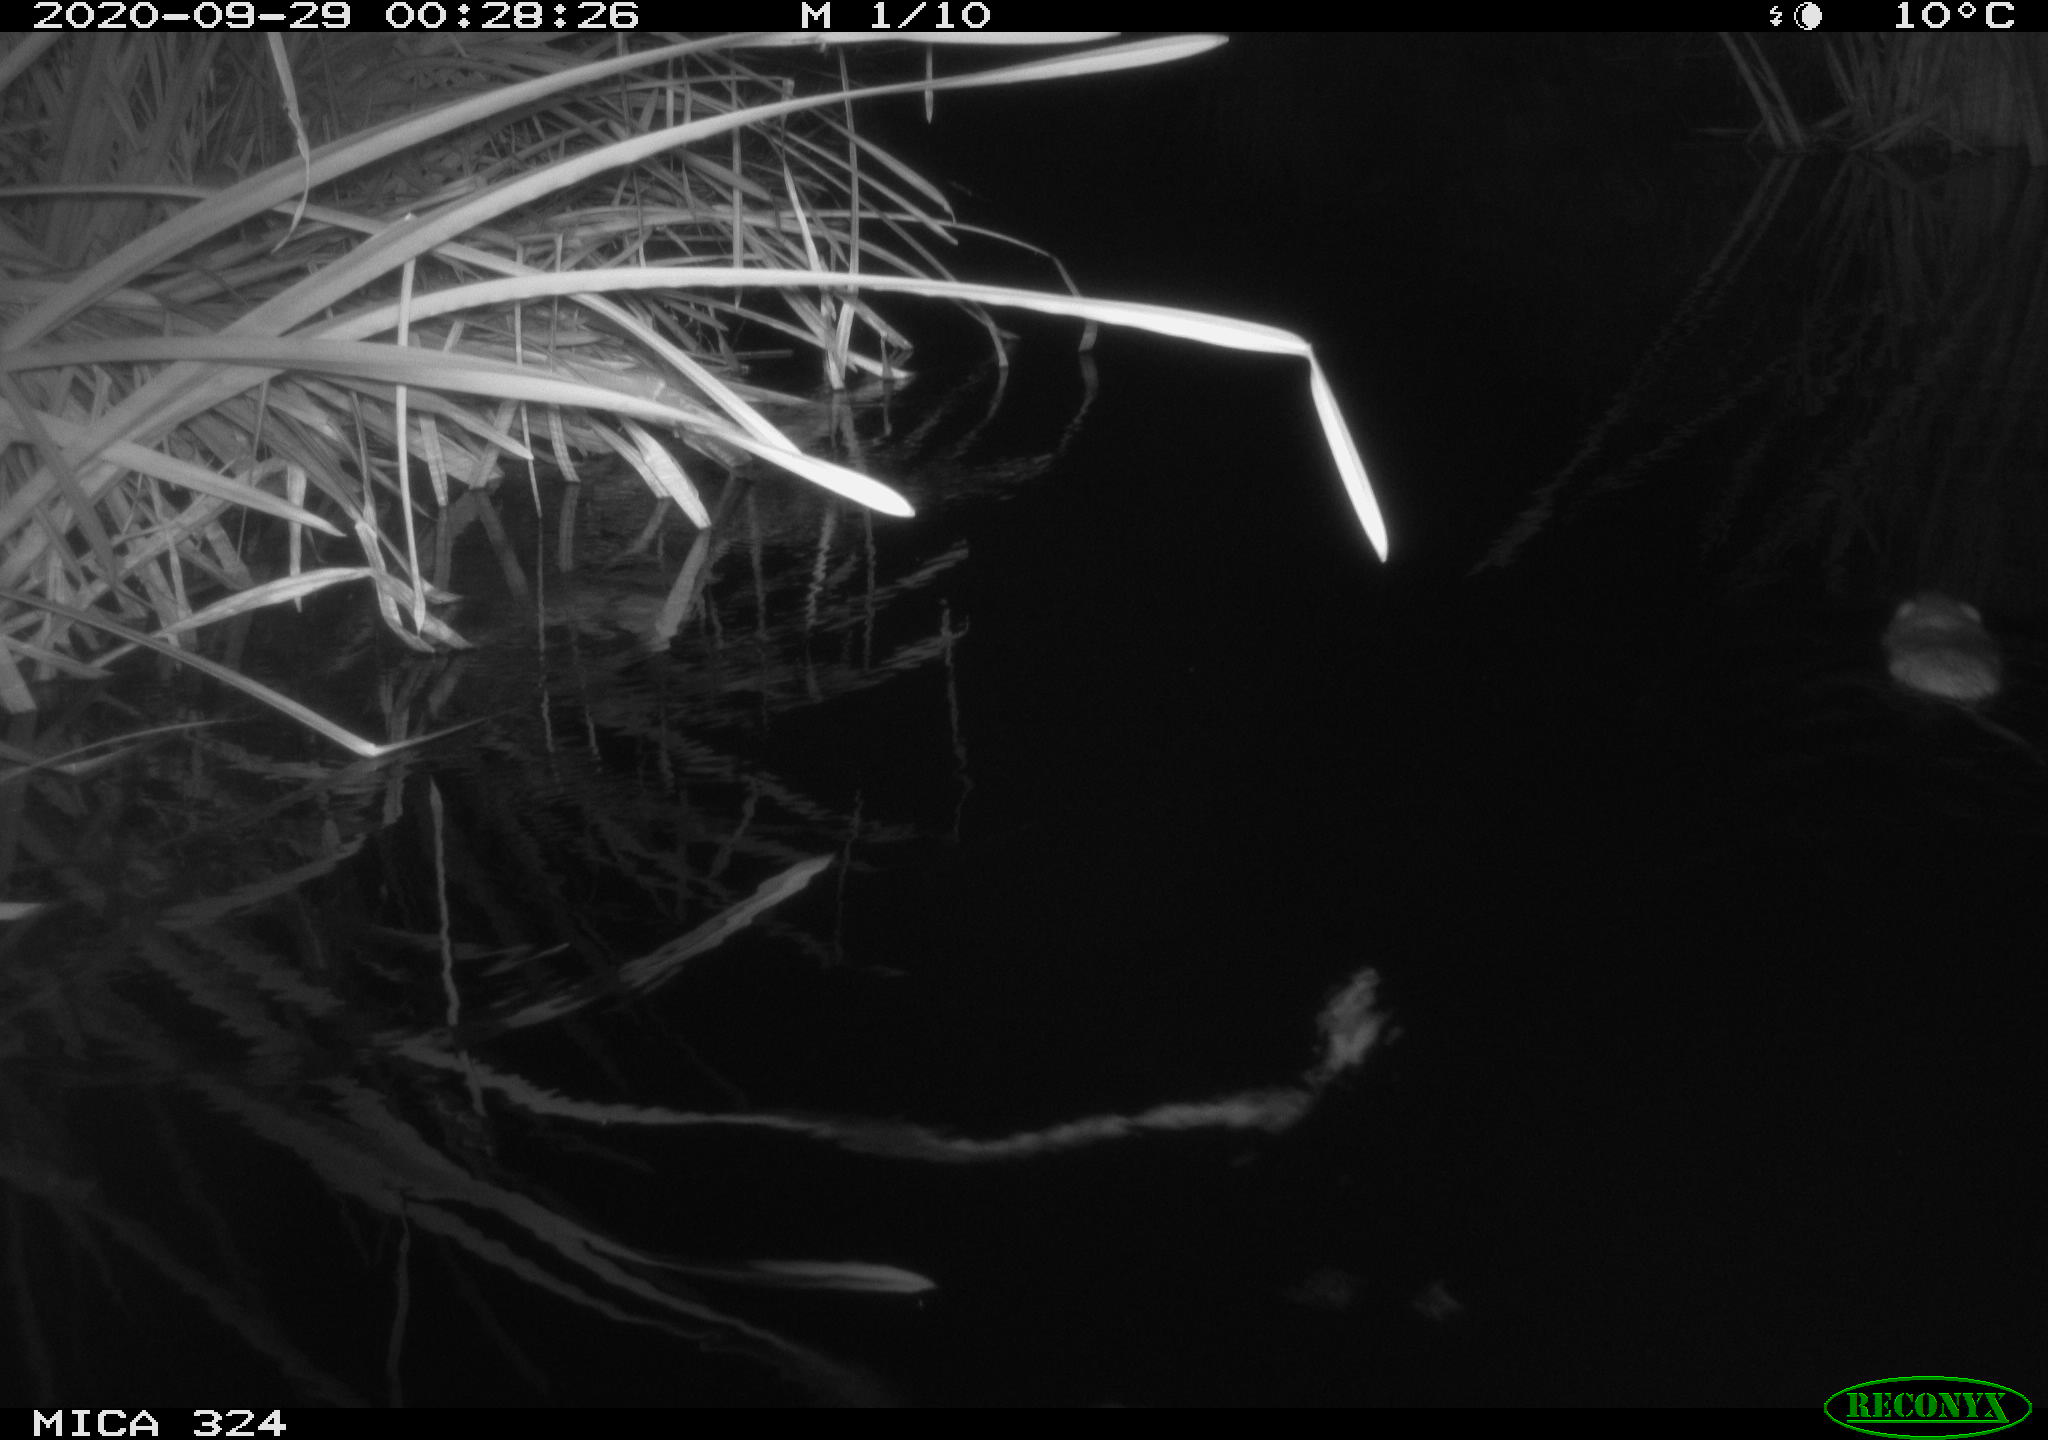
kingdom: Animalia
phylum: Chordata
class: Mammalia
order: Rodentia
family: Cricetidae
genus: Ondatra
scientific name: Ondatra zibethicus
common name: Muskrat
